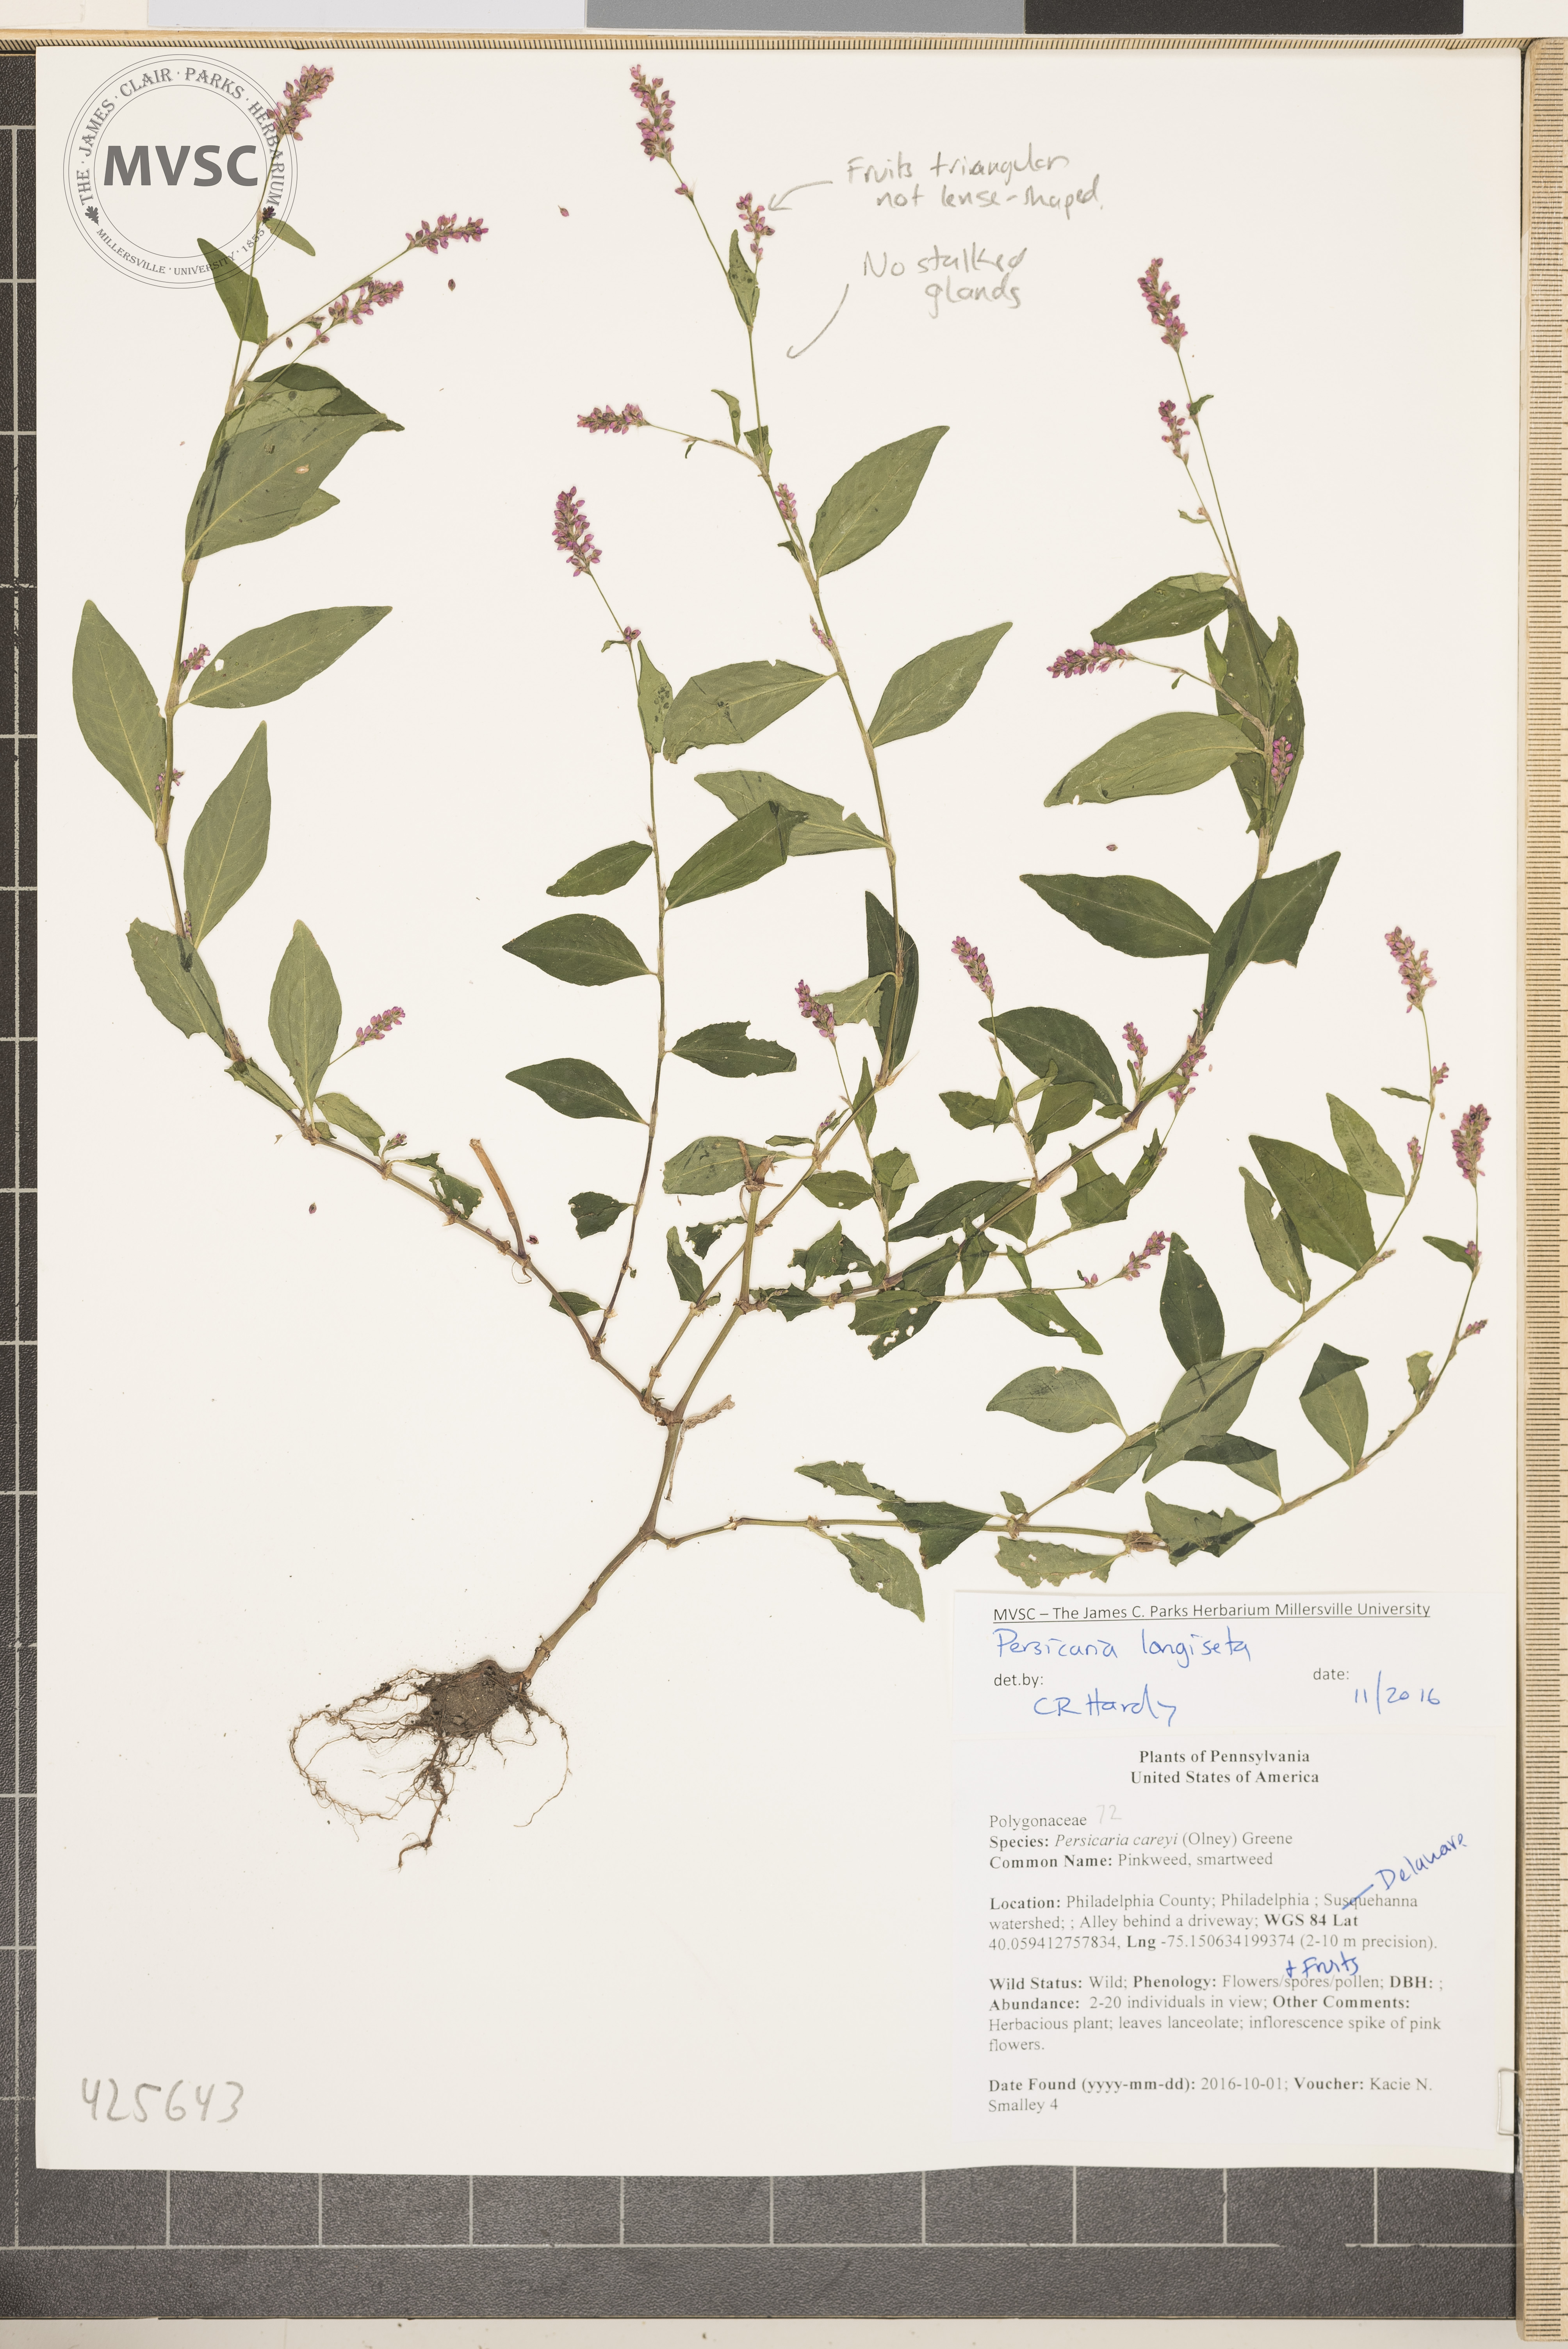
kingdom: Plantae
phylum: Tracheophyta
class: Magnoliopsida
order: Caryophyllales
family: Polygonaceae
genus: Persicaria
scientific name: Persicaria longiseta
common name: Low smartweed
